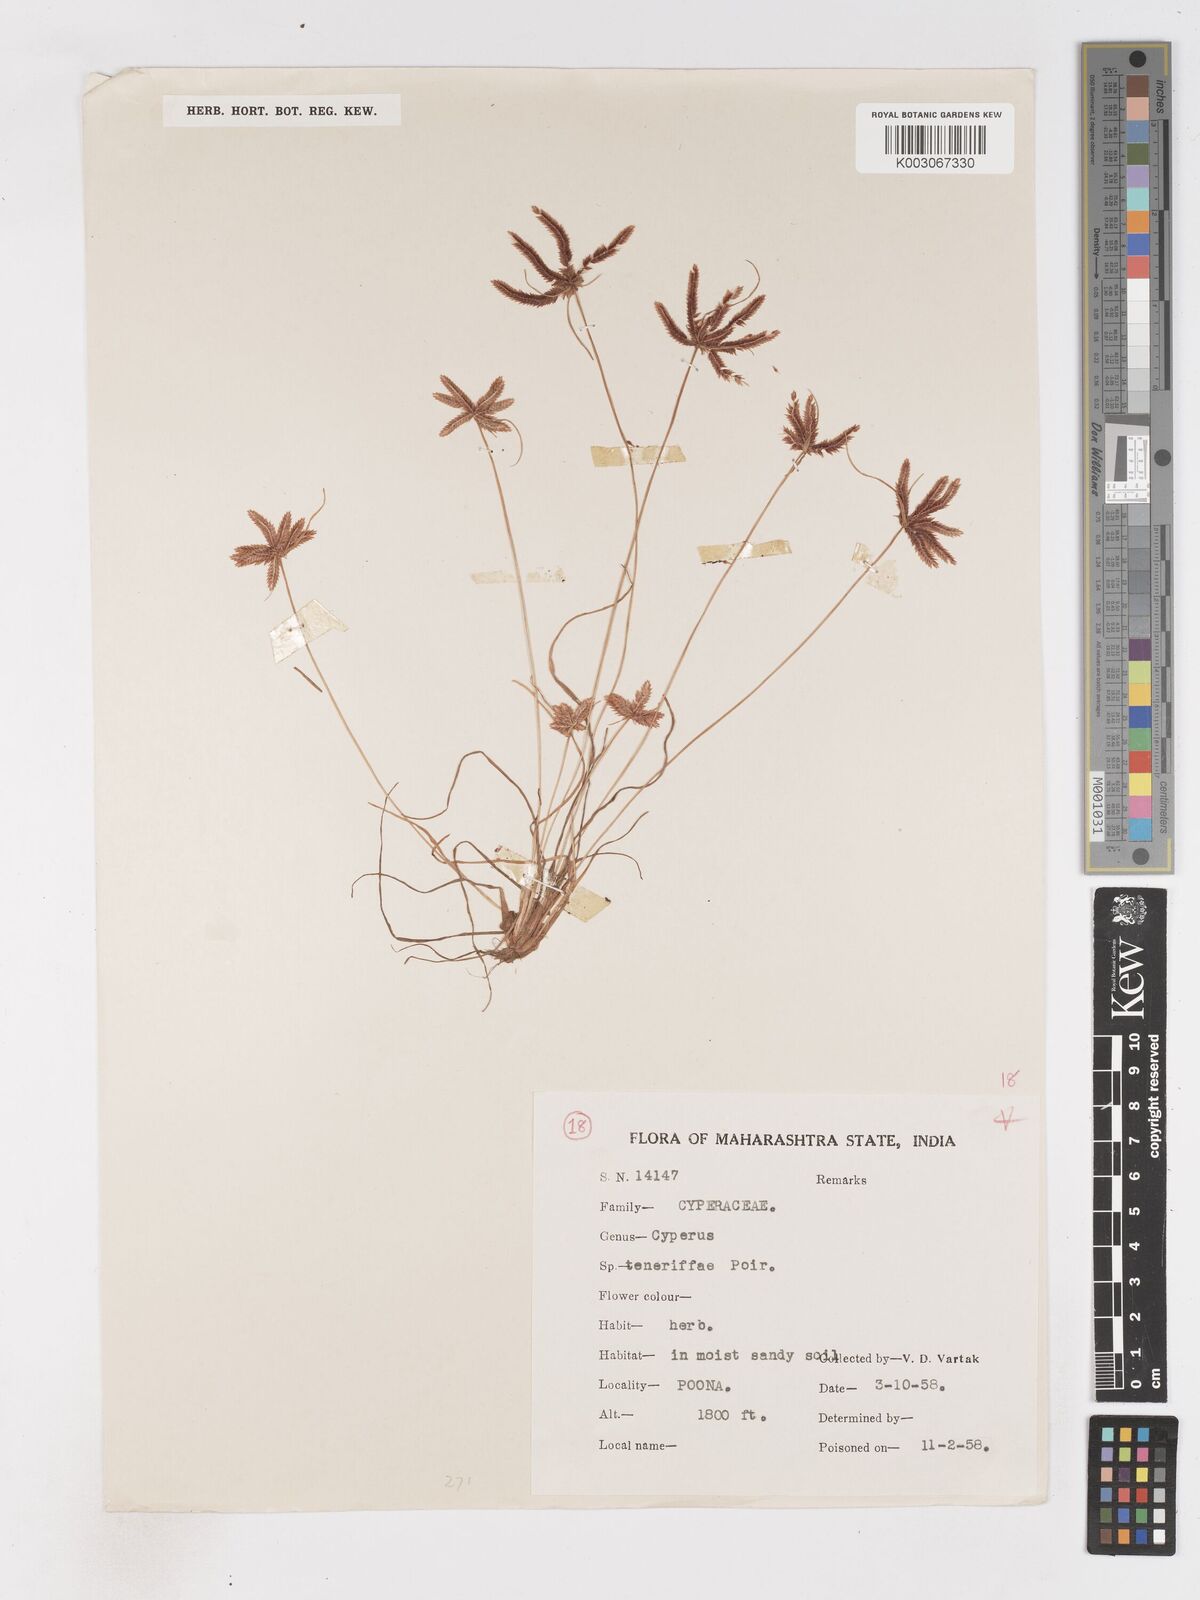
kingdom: Plantae
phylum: Tracheophyta
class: Liliopsida
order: Poales
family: Cyperaceae
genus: Cyperus
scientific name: Cyperus rubicundus
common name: Coco-grass
